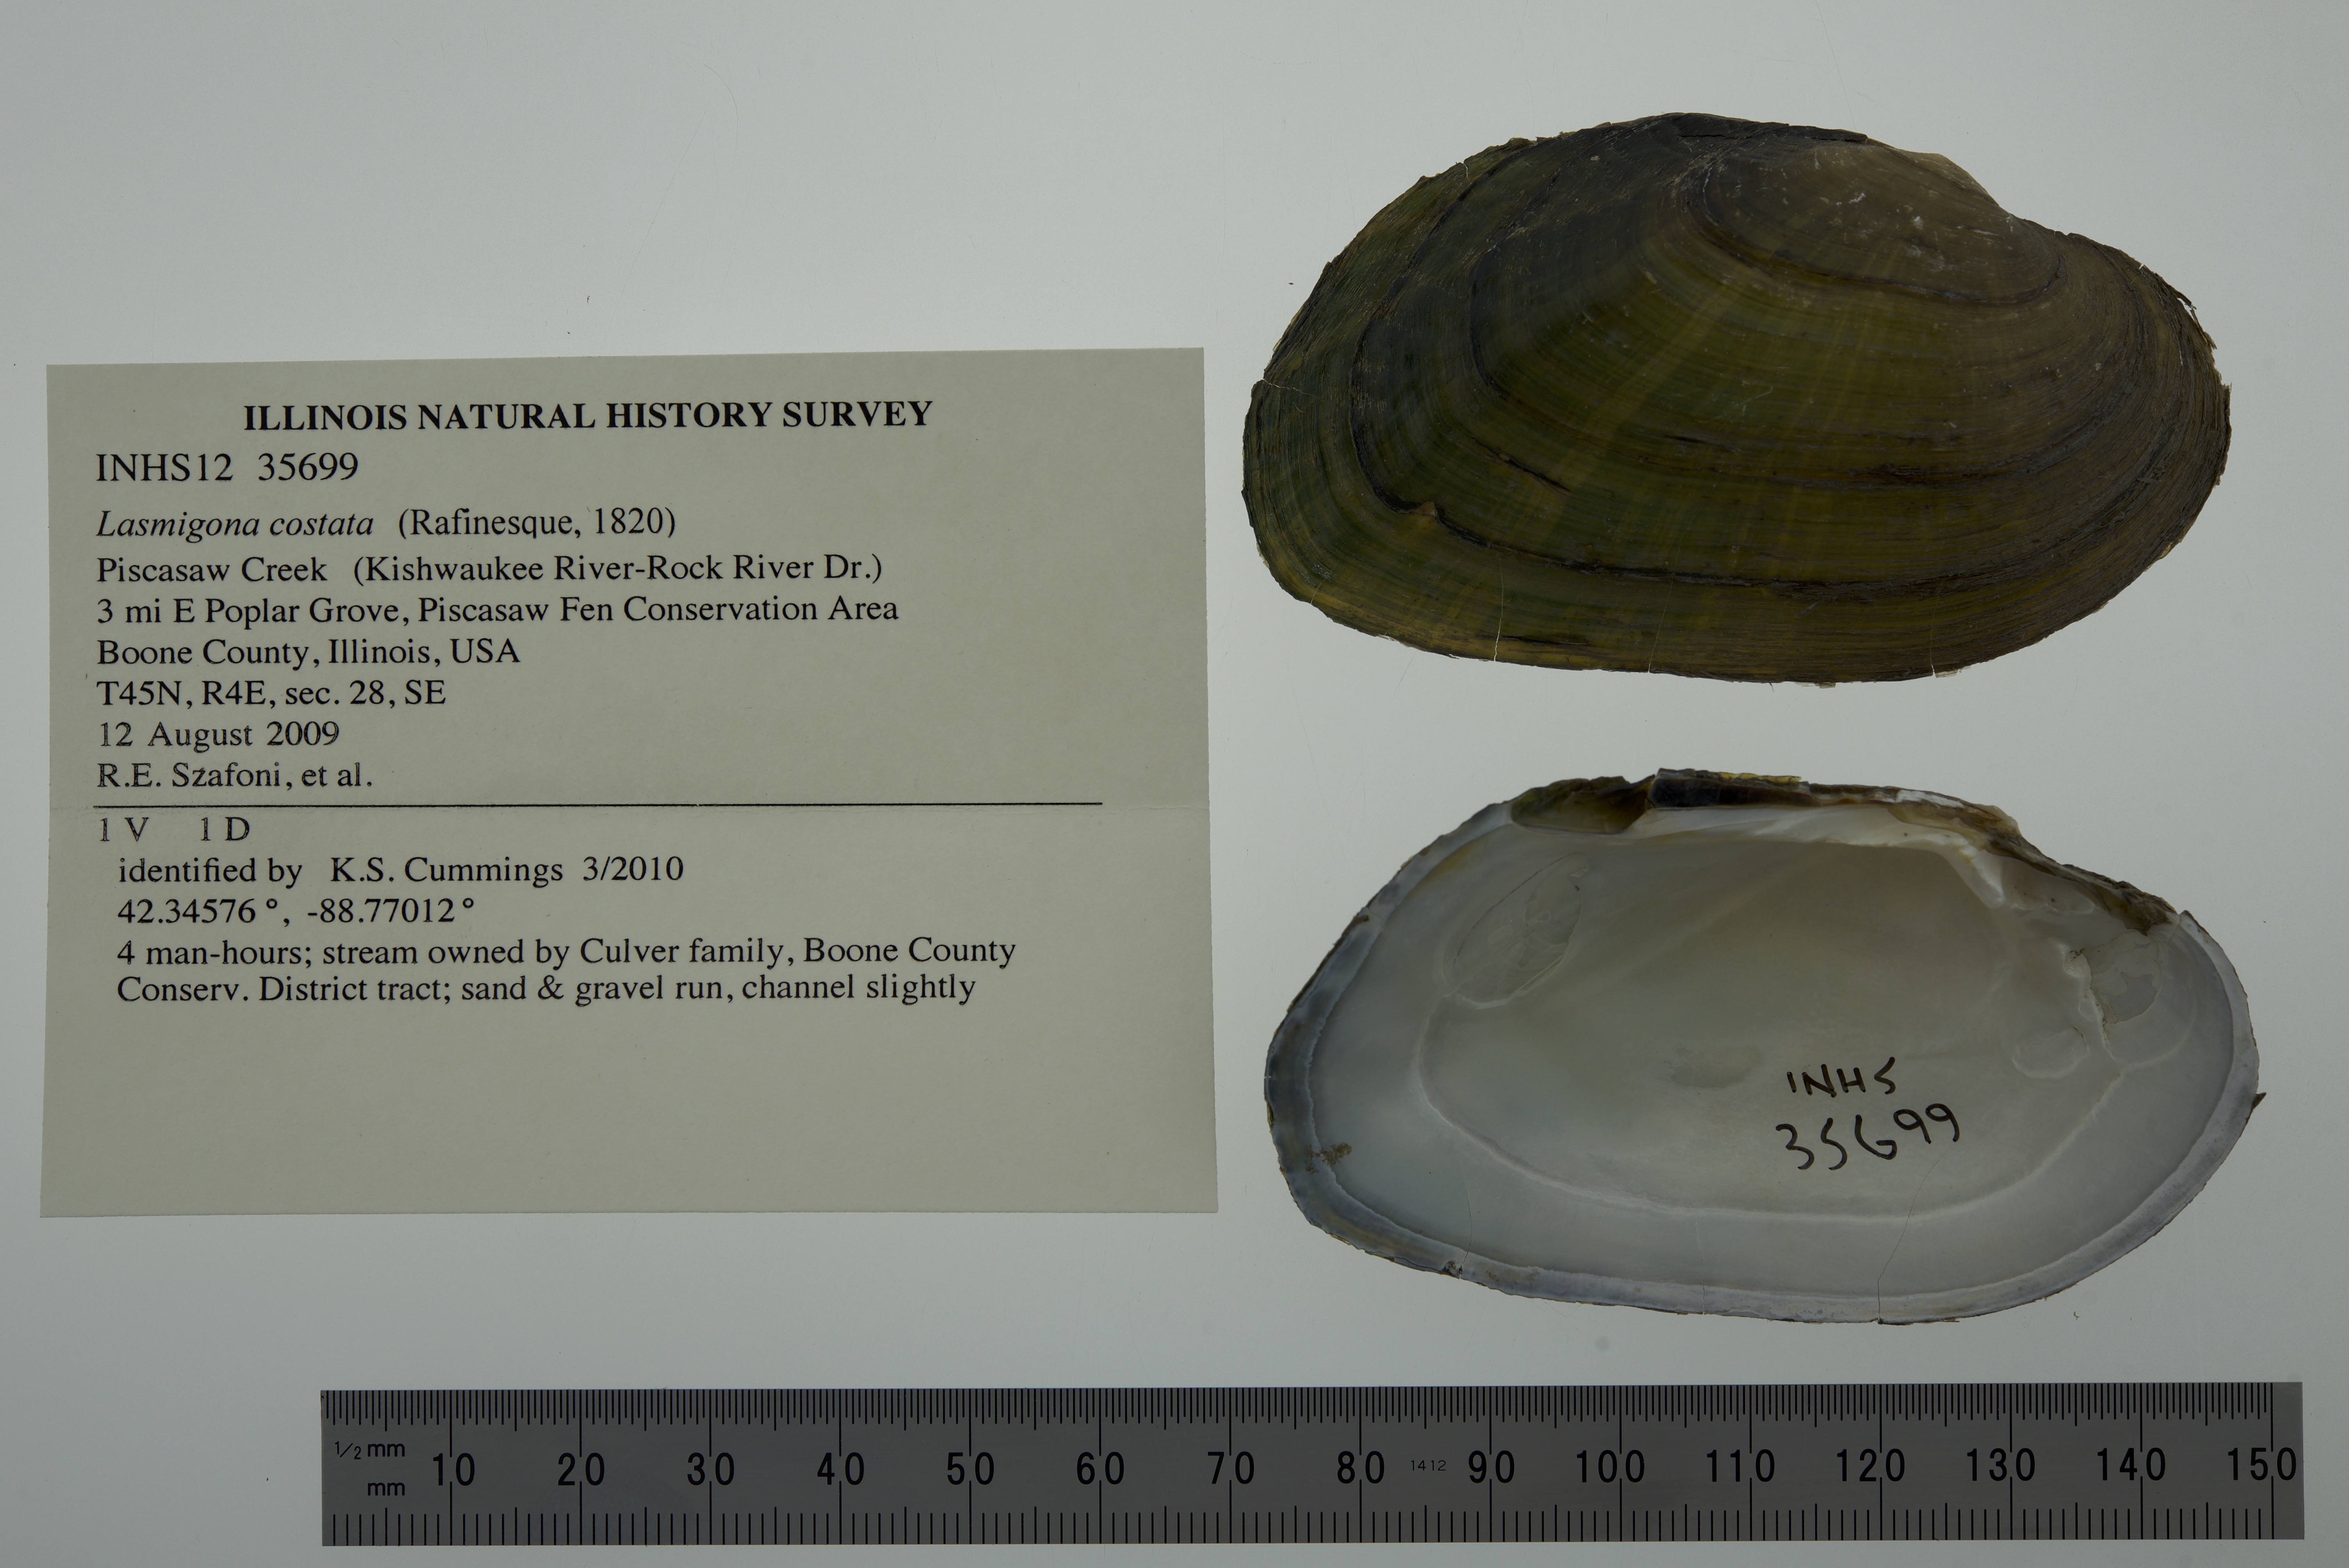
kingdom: Animalia
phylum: Mollusca
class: Bivalvia
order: Unionida
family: Unionidae
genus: Lasmigona
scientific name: Lasmigona costata
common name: Flutedshell
